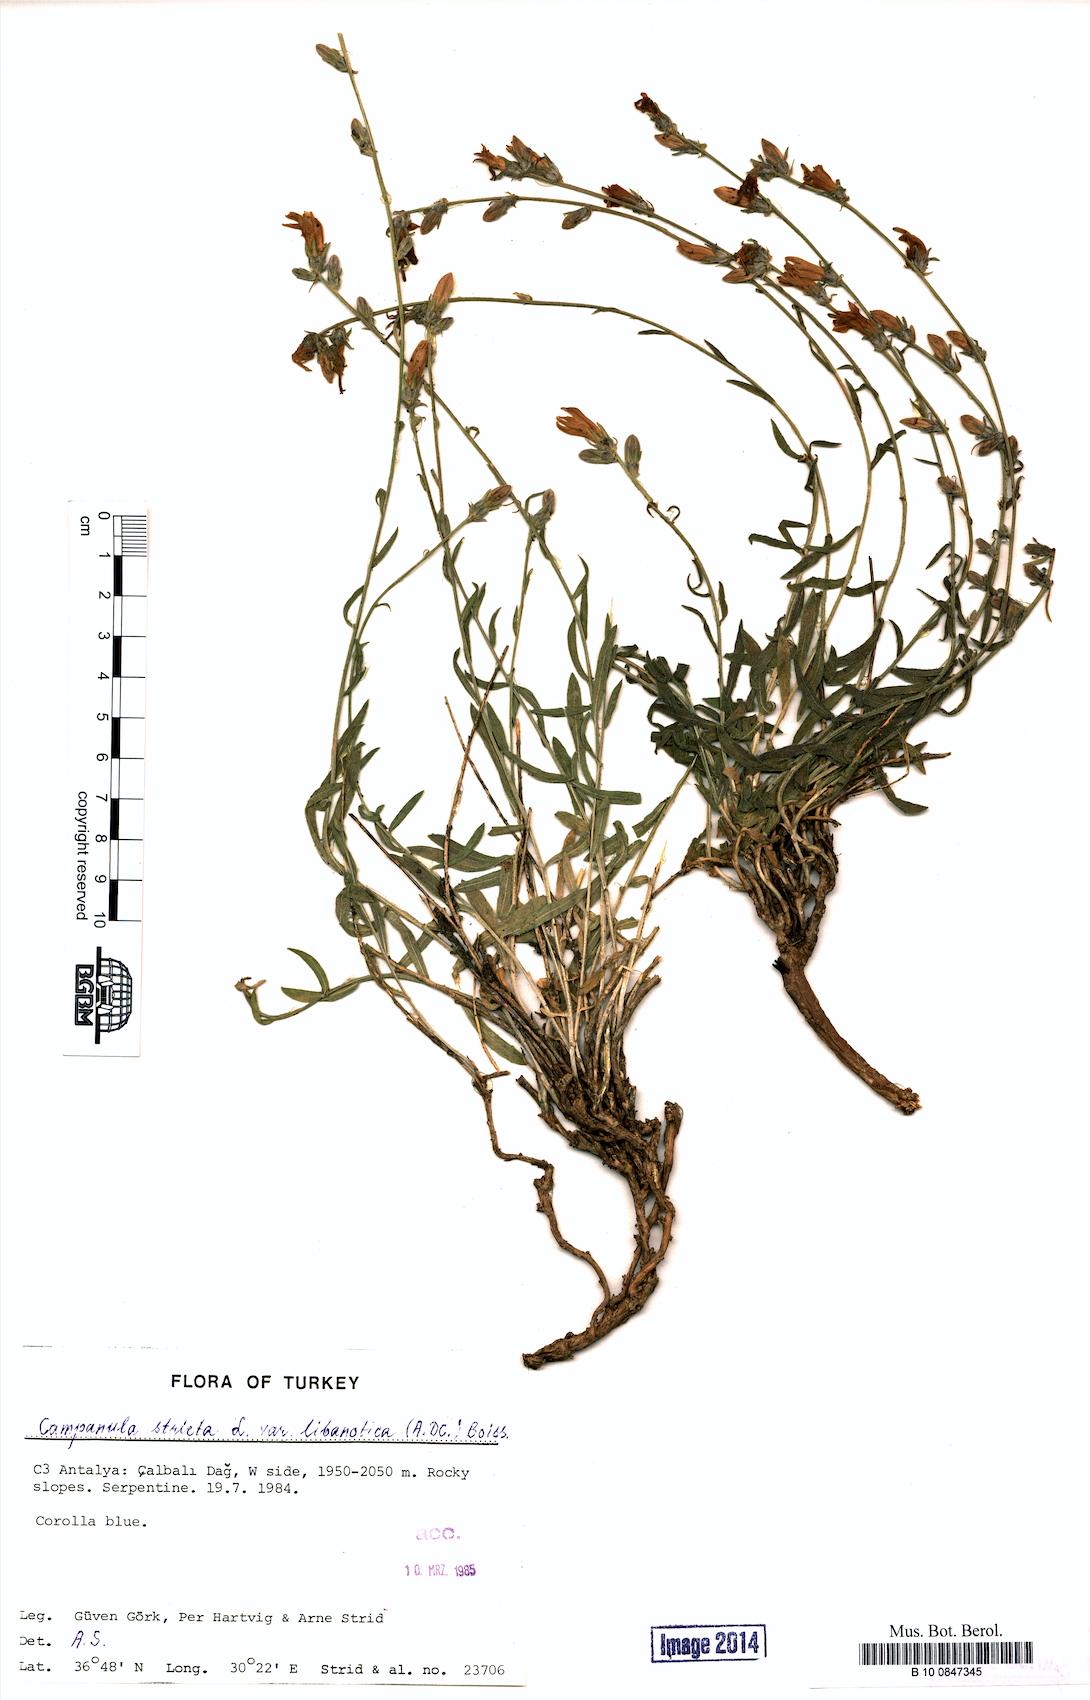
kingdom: Plantae
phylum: Tracheophyta
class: Magnoliopsida
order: Asterales
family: Campanulaceae
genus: Campanula
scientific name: Campanula stricta
